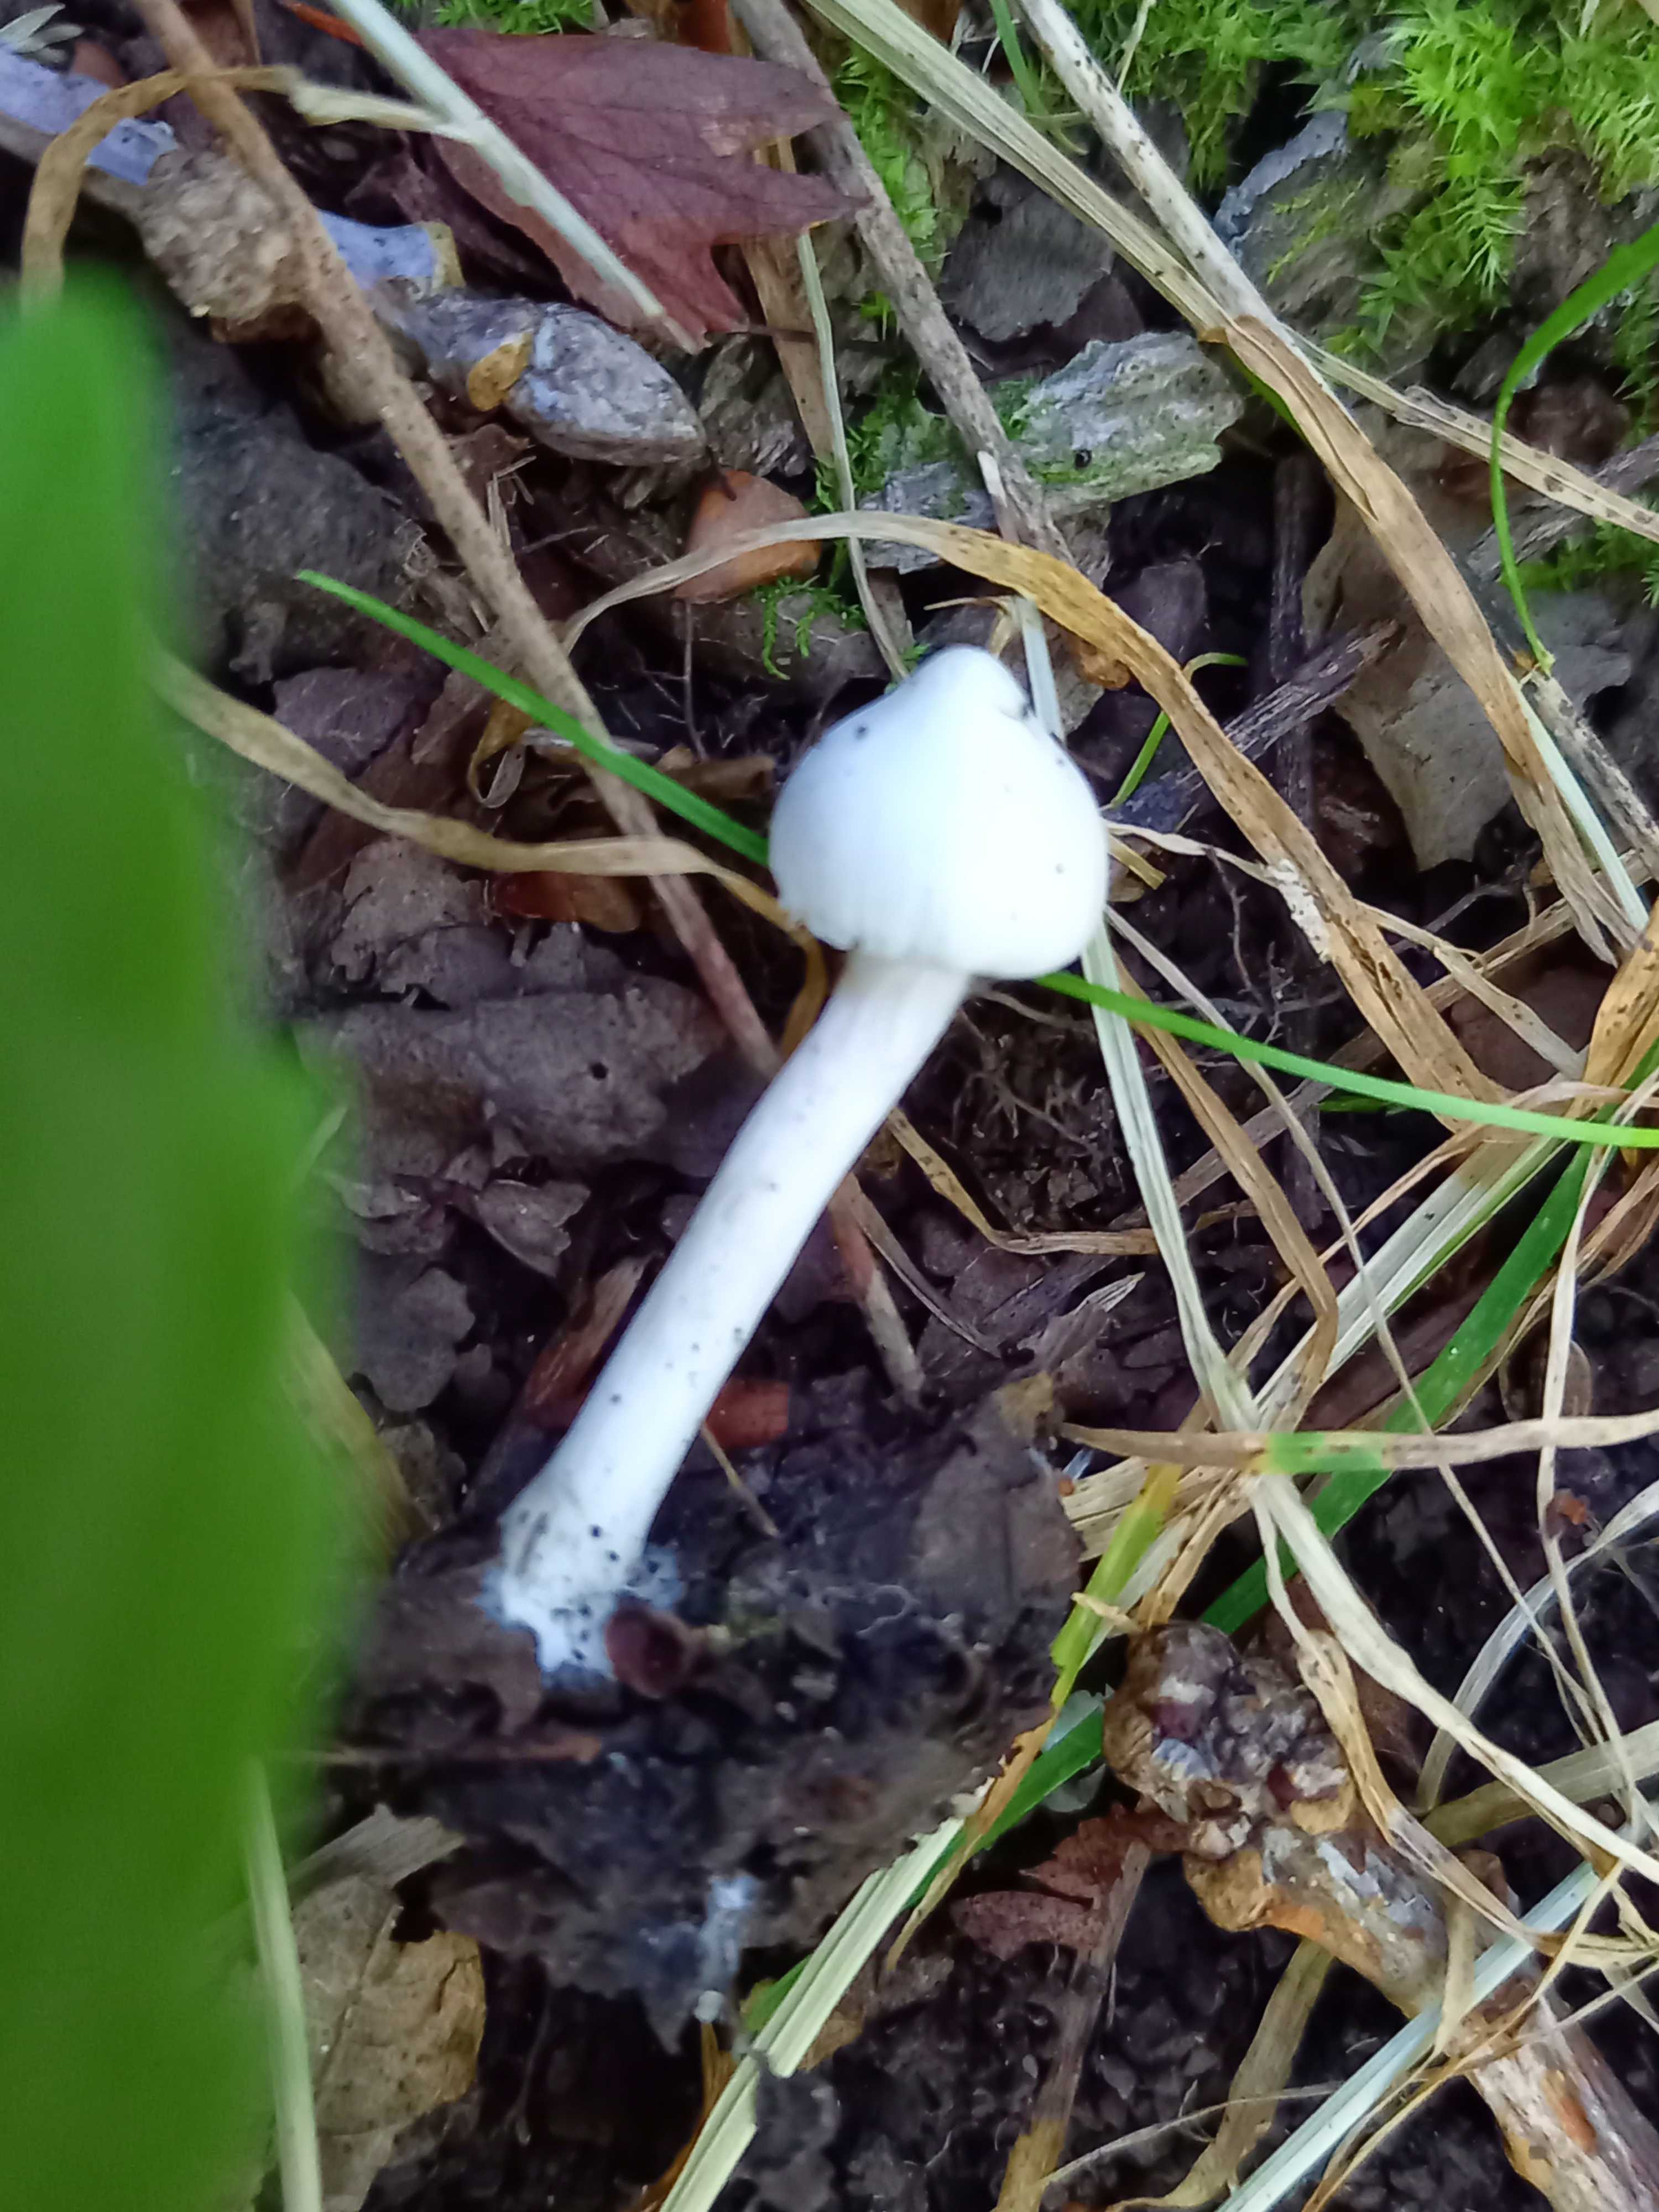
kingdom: Fungi
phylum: Basidiomycota
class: Agaricomycetes
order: Agaricales
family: Inocybaceae
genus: Inocybe
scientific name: Inocybe
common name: almindelig trævlhat
